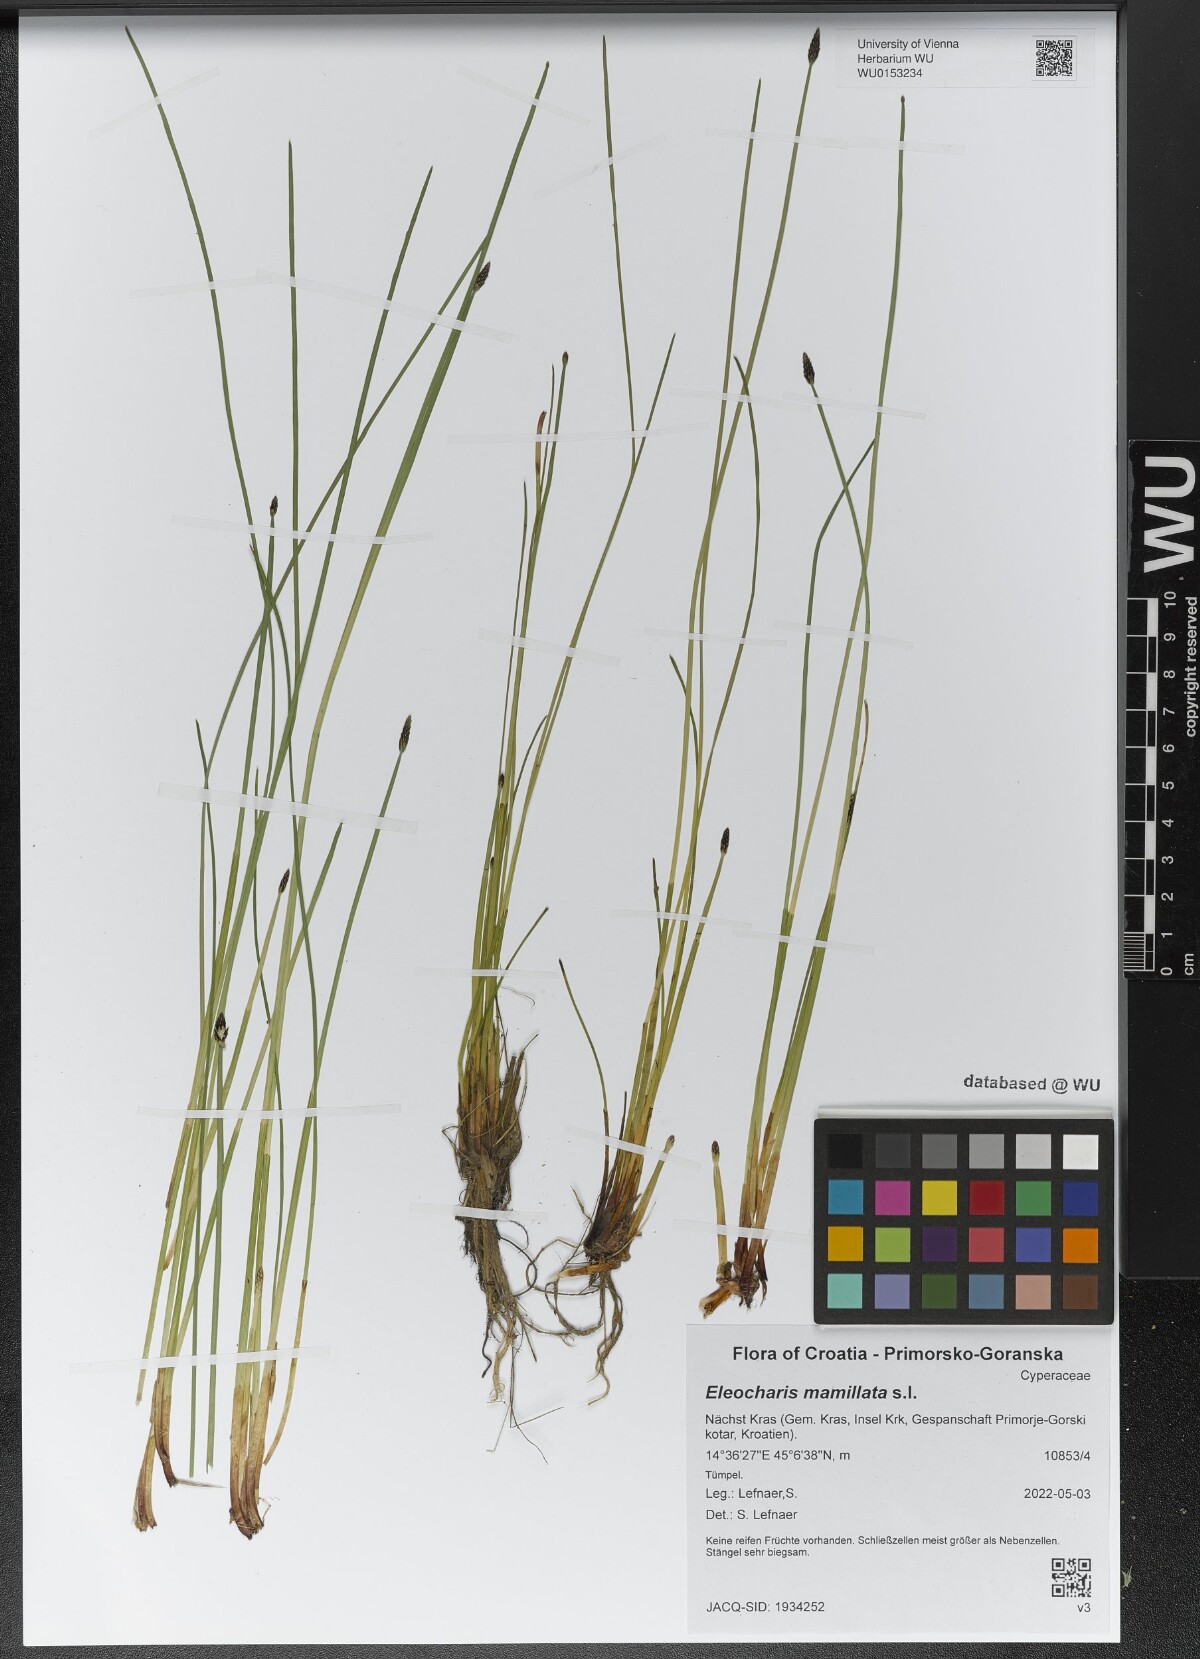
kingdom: Plantae
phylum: Tracheophyta
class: Liliopsida
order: Poales
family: Cyperaceae
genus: Eleocharis
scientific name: Eleocharis mamillata
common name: Northern spike-rush
